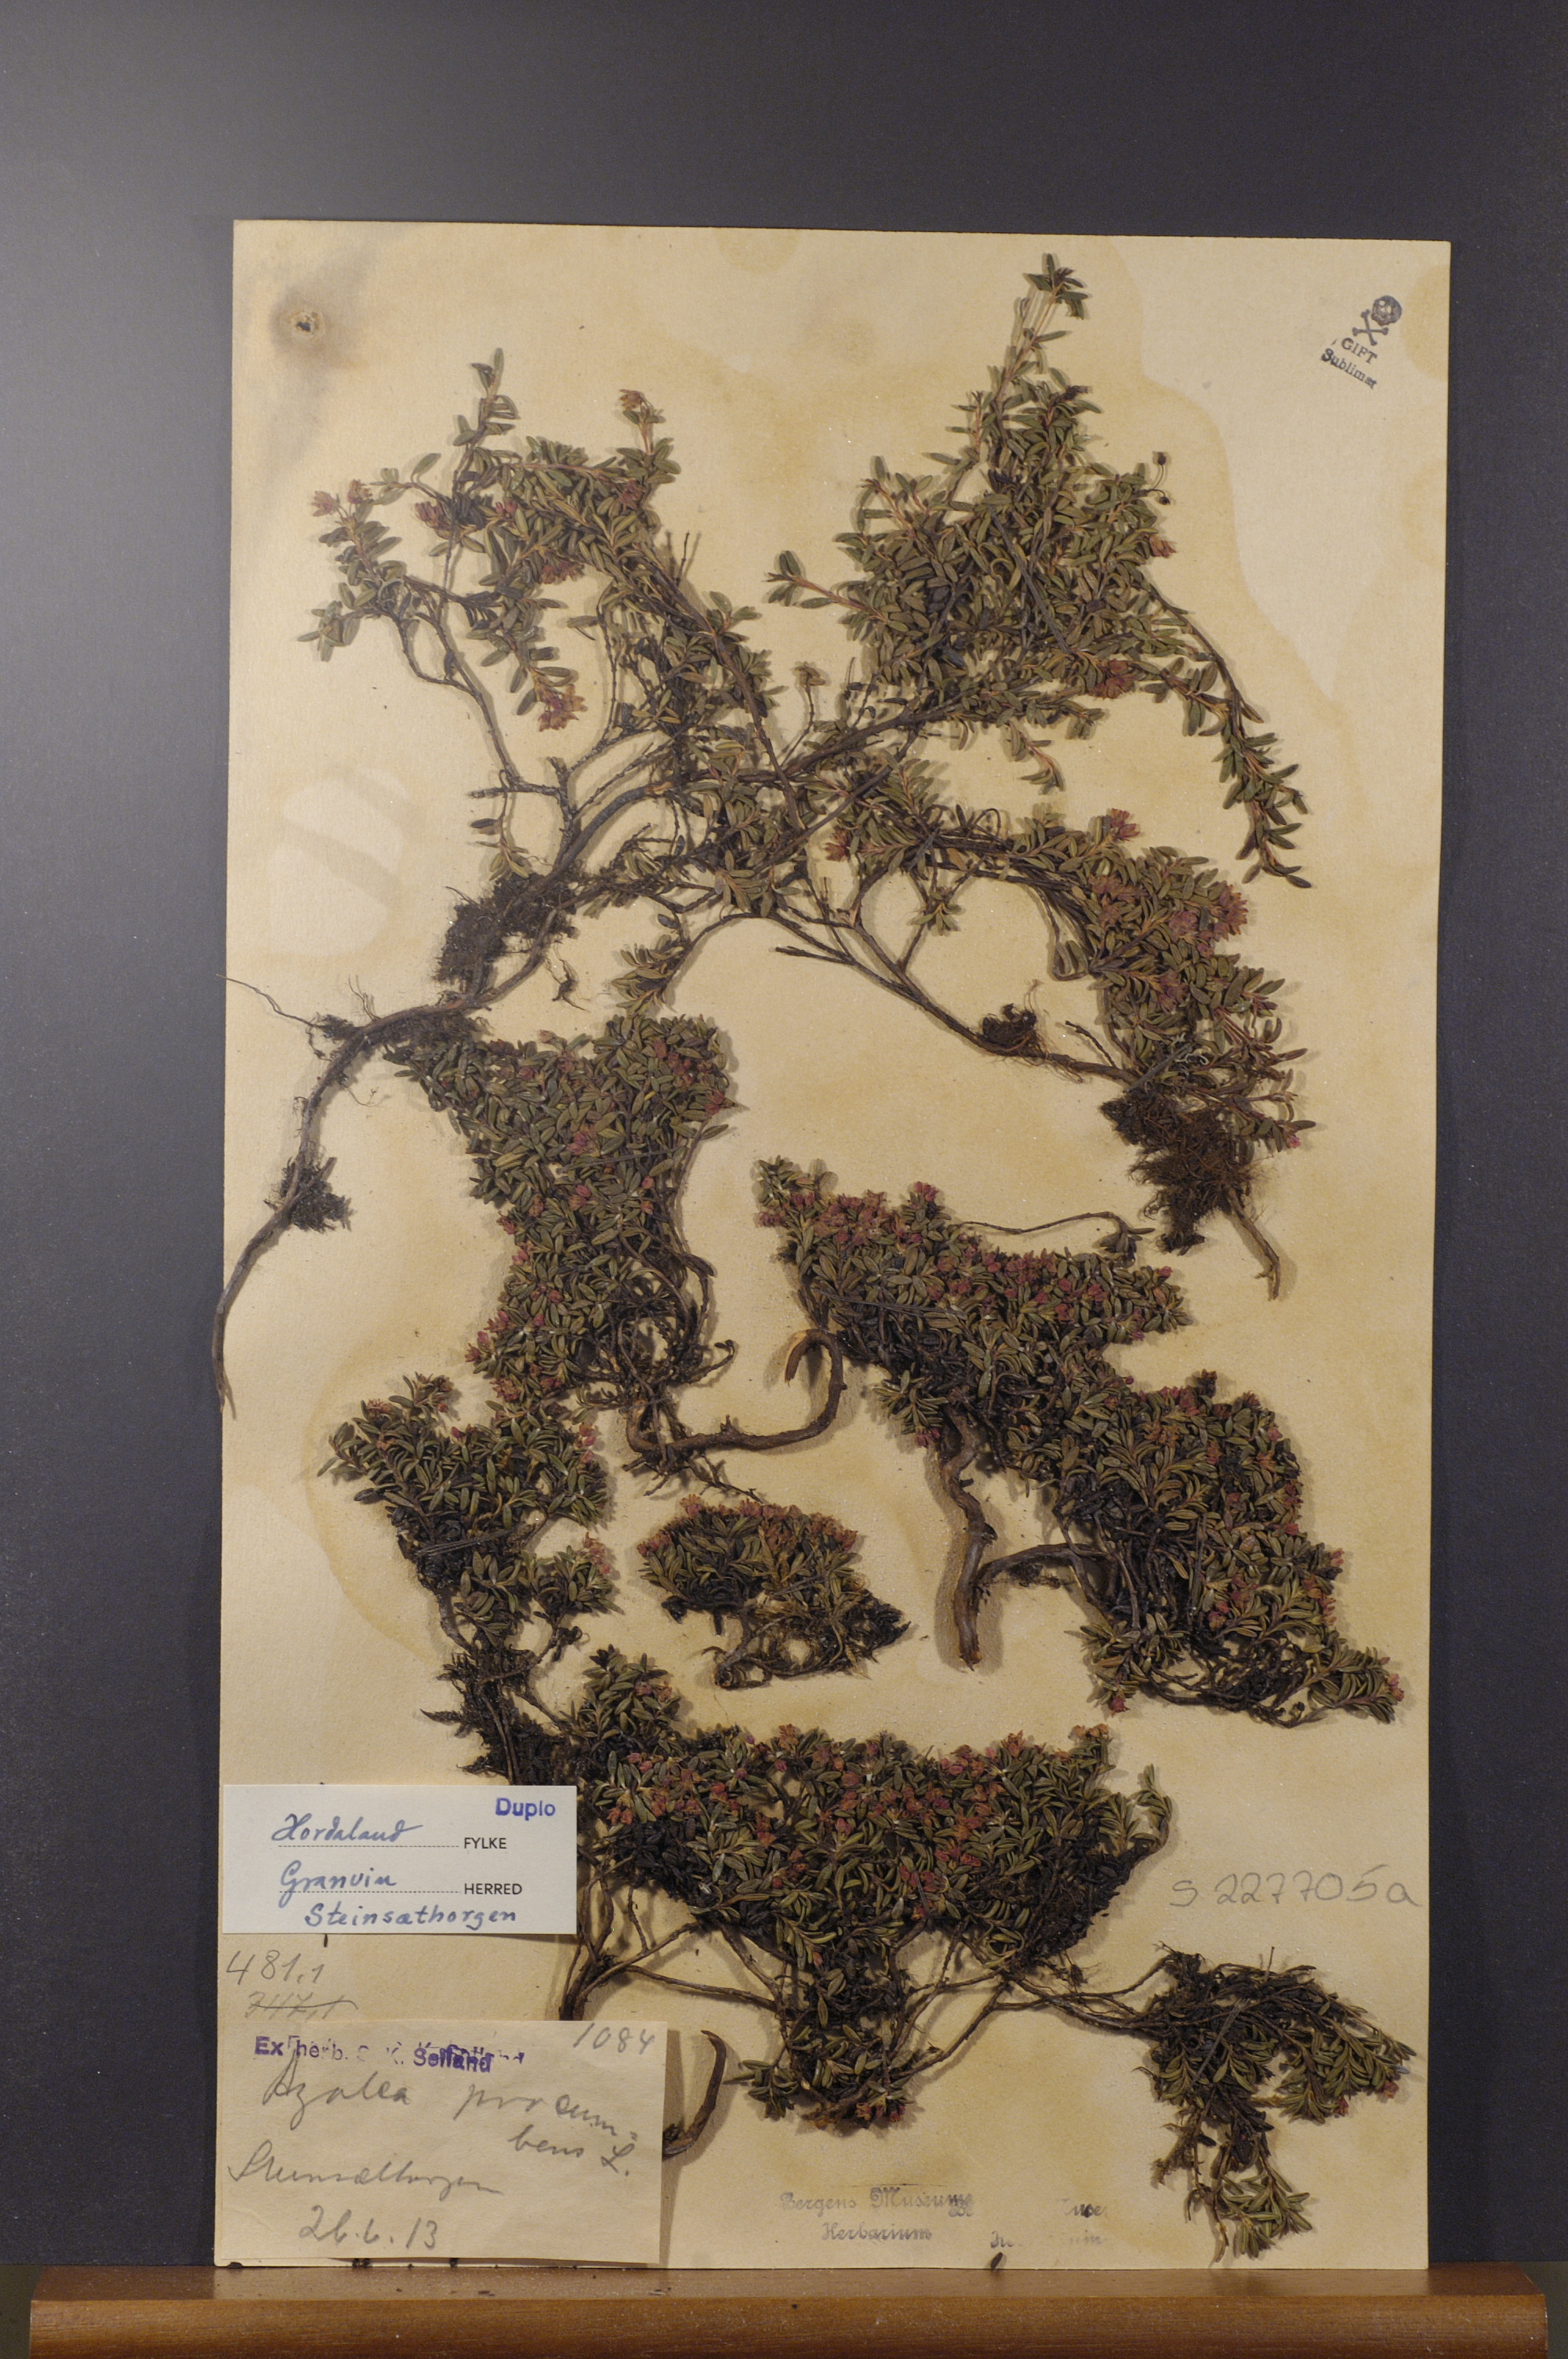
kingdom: Plantae
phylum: Tracheophyta
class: Magnoliopsida
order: Ericales
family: Ericaceae
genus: Kalmia
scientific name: Kalmia procumbens
